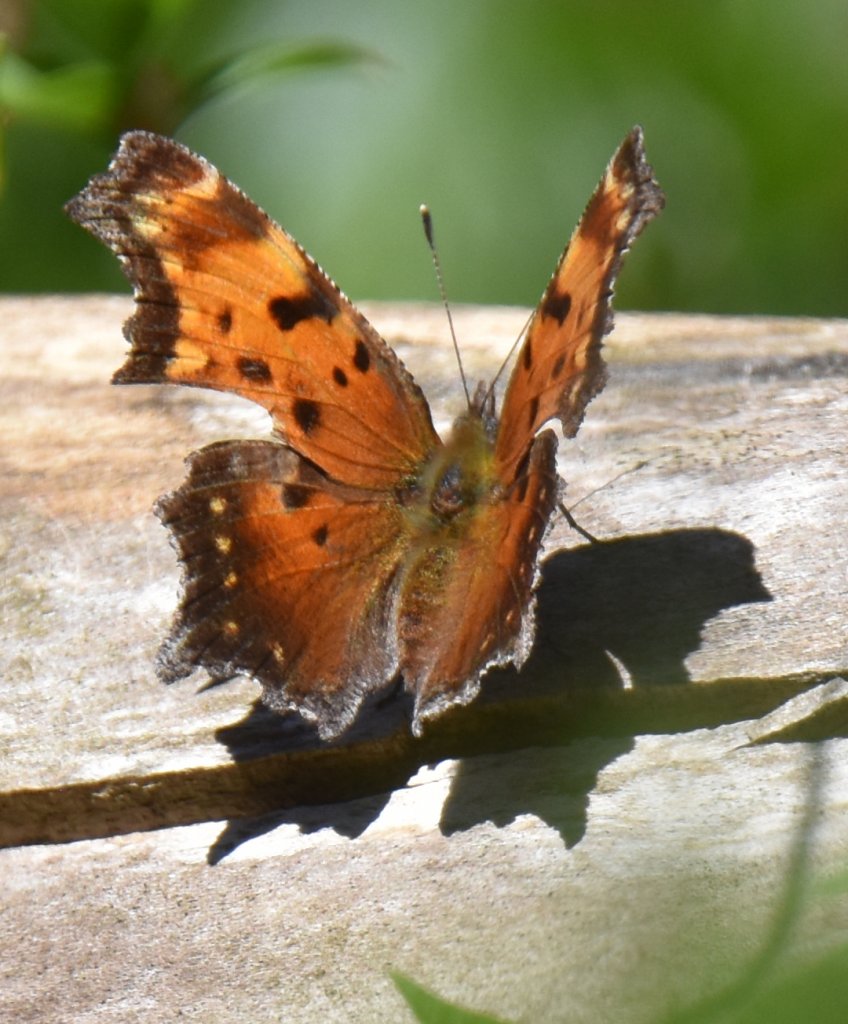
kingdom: Animalia
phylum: Arthropoda
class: Insecta
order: Lepidoptera
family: Nymphalidae
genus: Polygonia
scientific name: Polygonia progne
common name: Gray Comma
